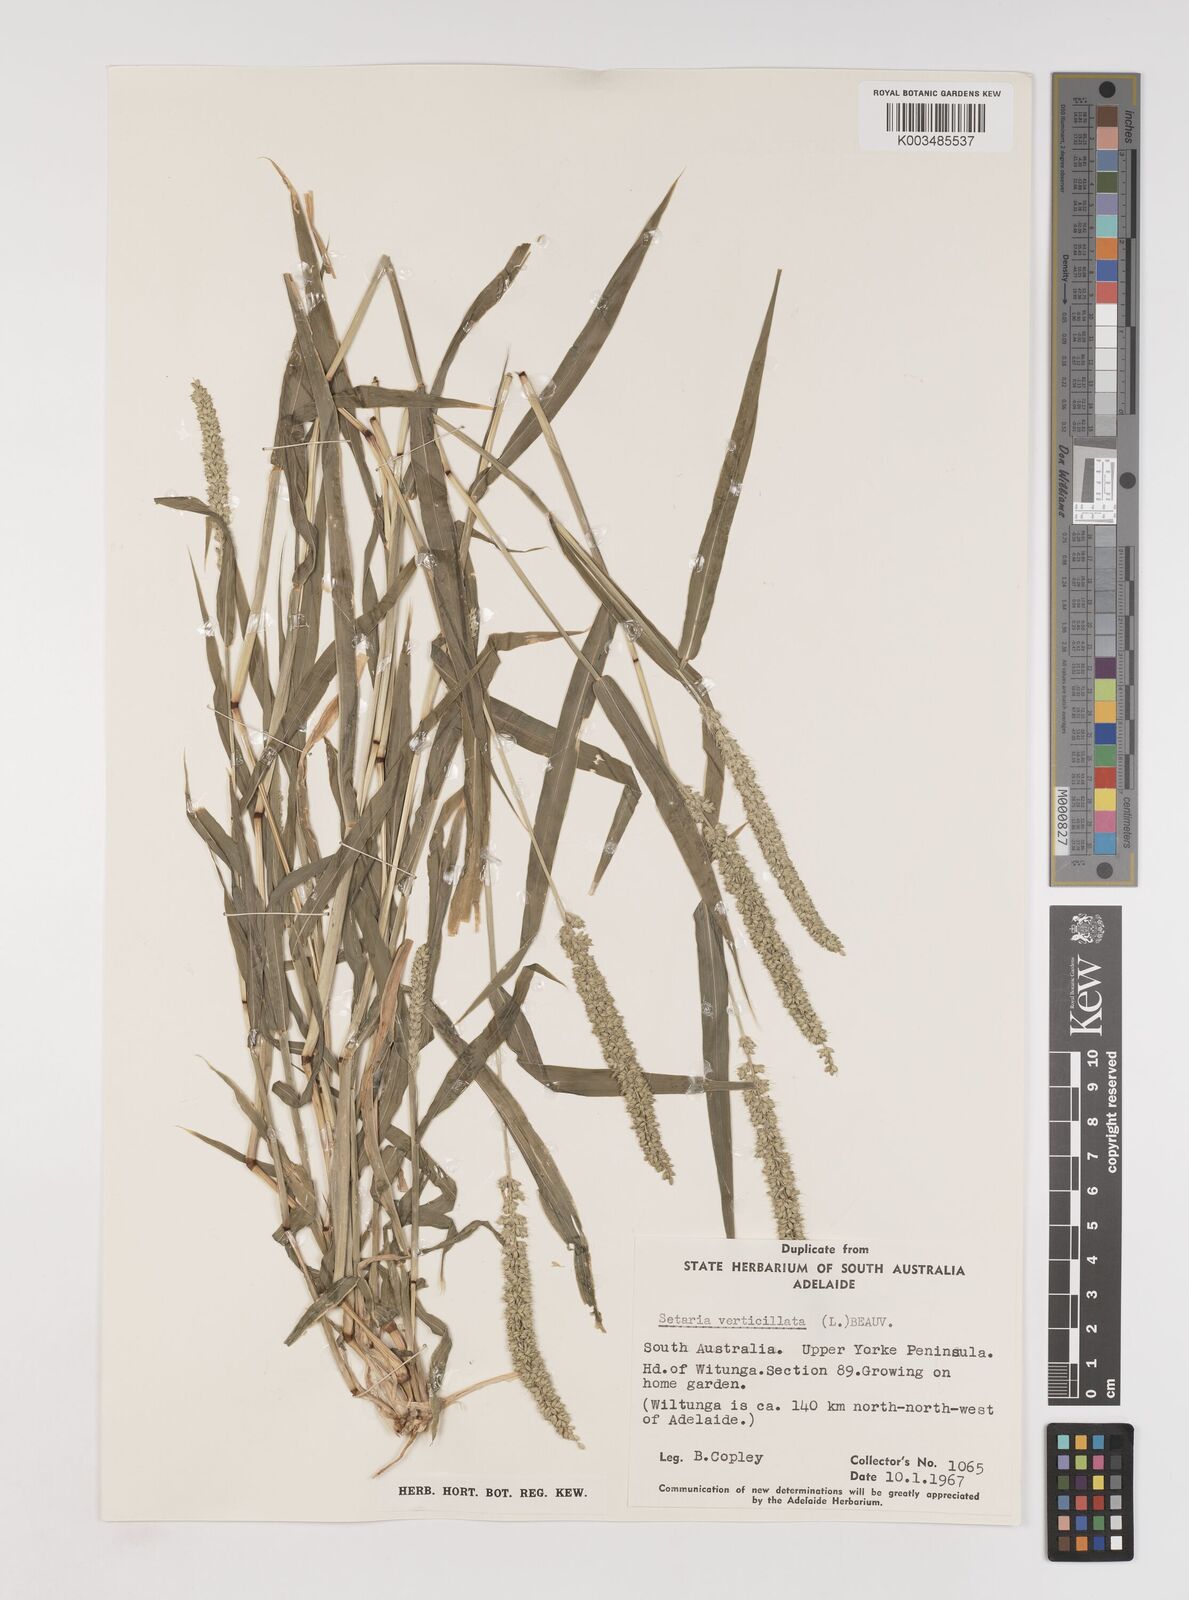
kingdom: Plantae
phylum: Tracheophyta
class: Liliopsida
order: Poales
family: Poaceae
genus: Setaria
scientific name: Setaria verticillata
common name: Hooked bristlegrass
